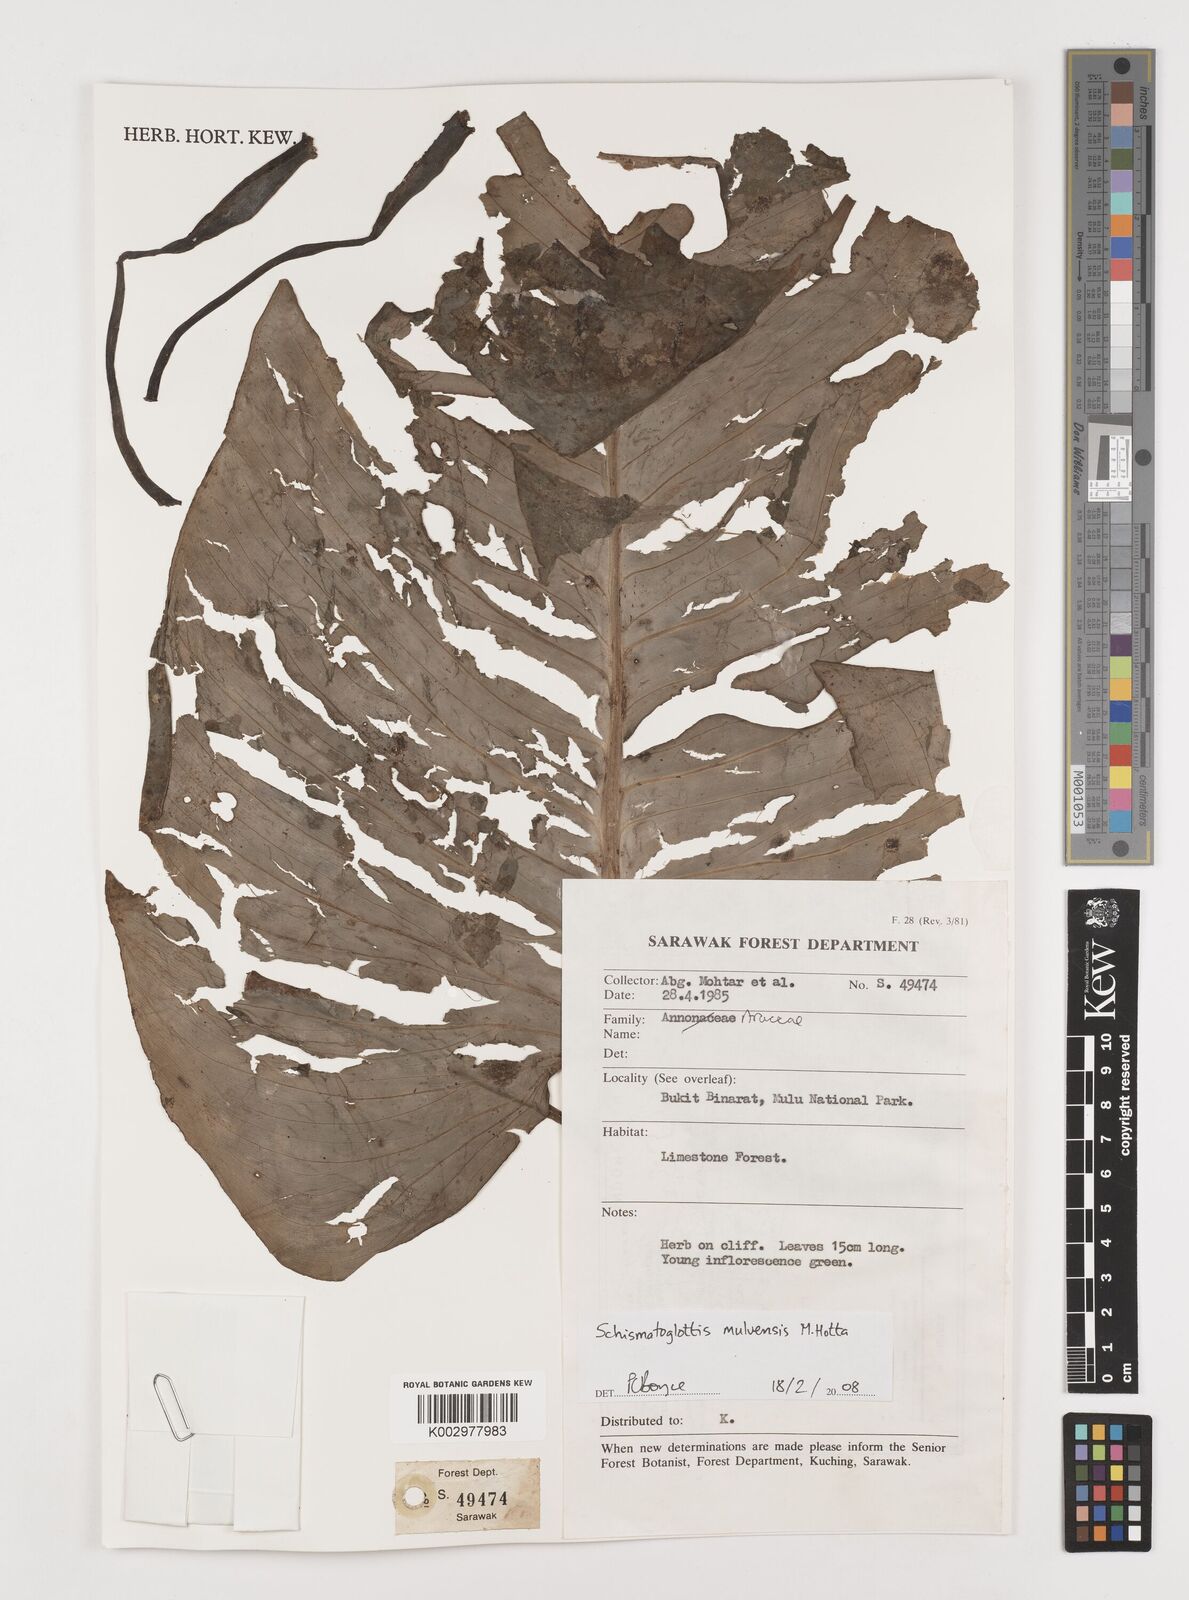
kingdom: Plantae
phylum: Tracheophyta
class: Liliopsida
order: Alismatales
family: Araceae
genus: Schismatoglottis
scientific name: Schismatoglottis calyptrata
